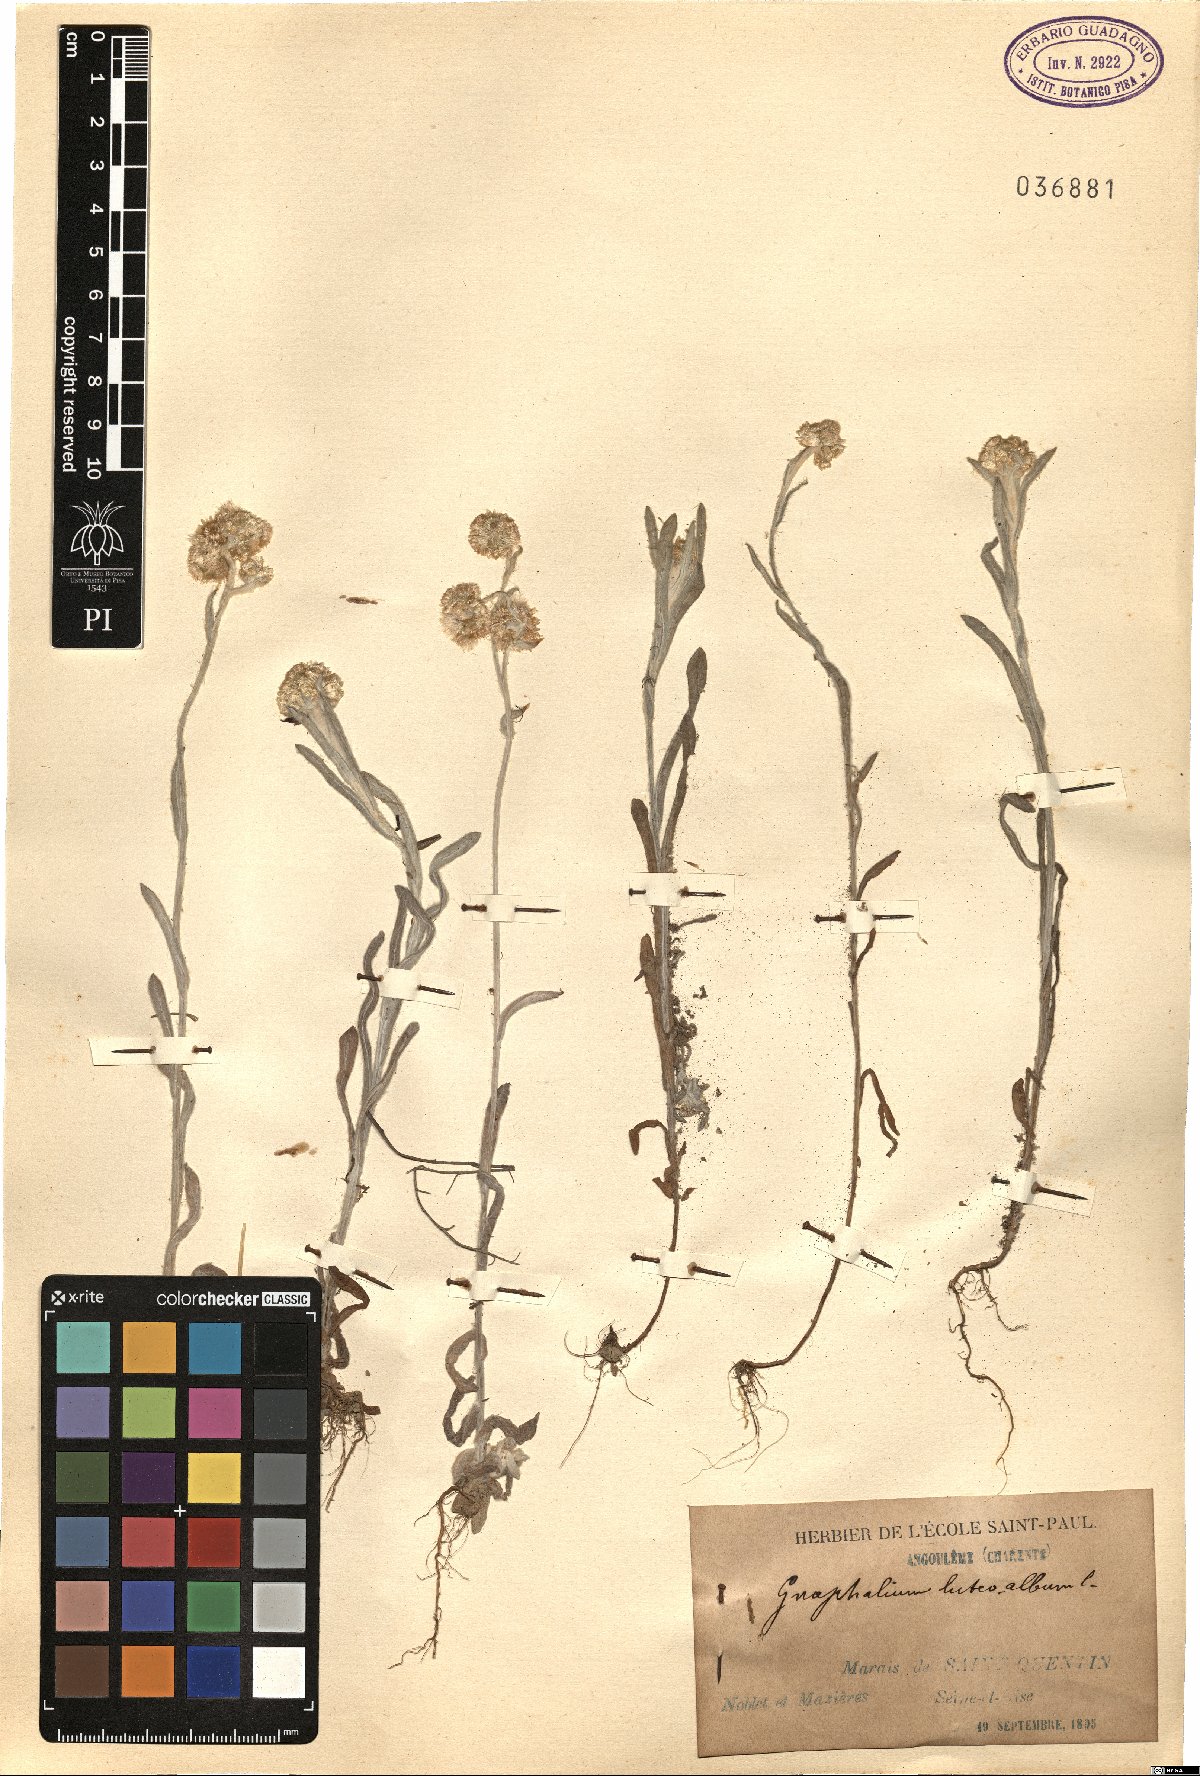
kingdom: Plantae
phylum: Tracheophyta
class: Magnoliopsida
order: Asterales
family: Asteraceae
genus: Helichrysum
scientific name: Helichrysum luteoalbum
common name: Daisy
